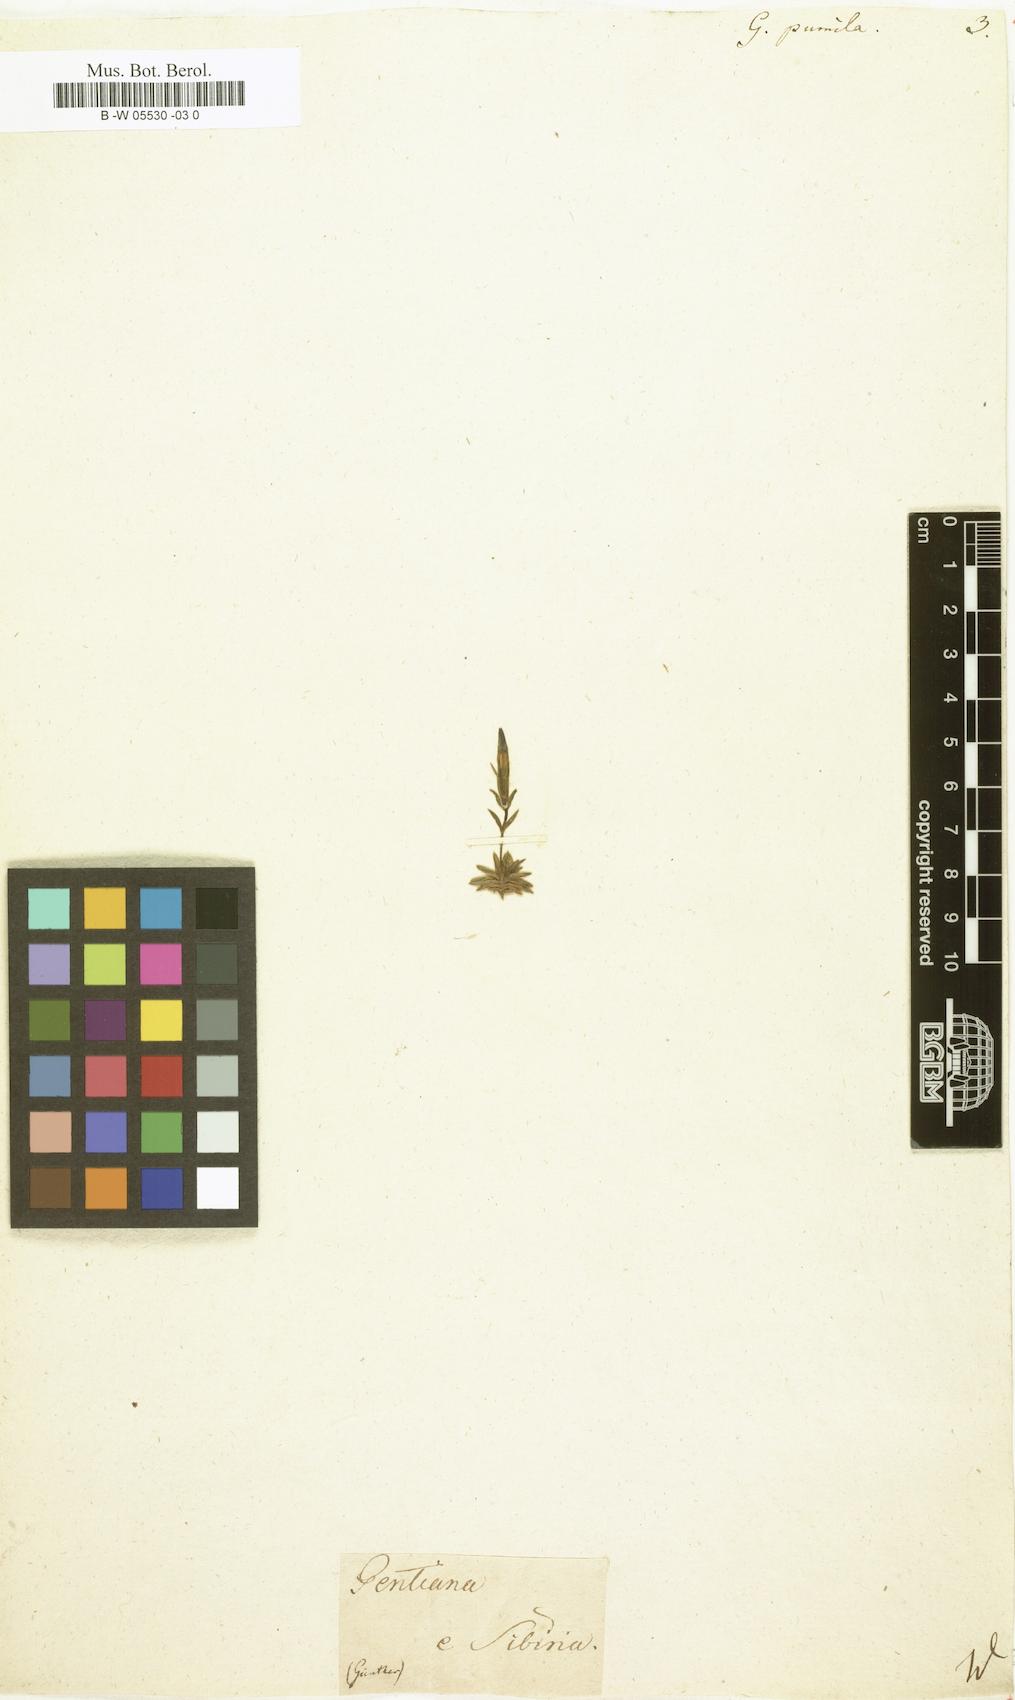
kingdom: Plantae
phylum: Tracheophyta
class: Magnoliopsida
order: Gentianales
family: Gentianaceae
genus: Gentiana
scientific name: Gentiana pumila
